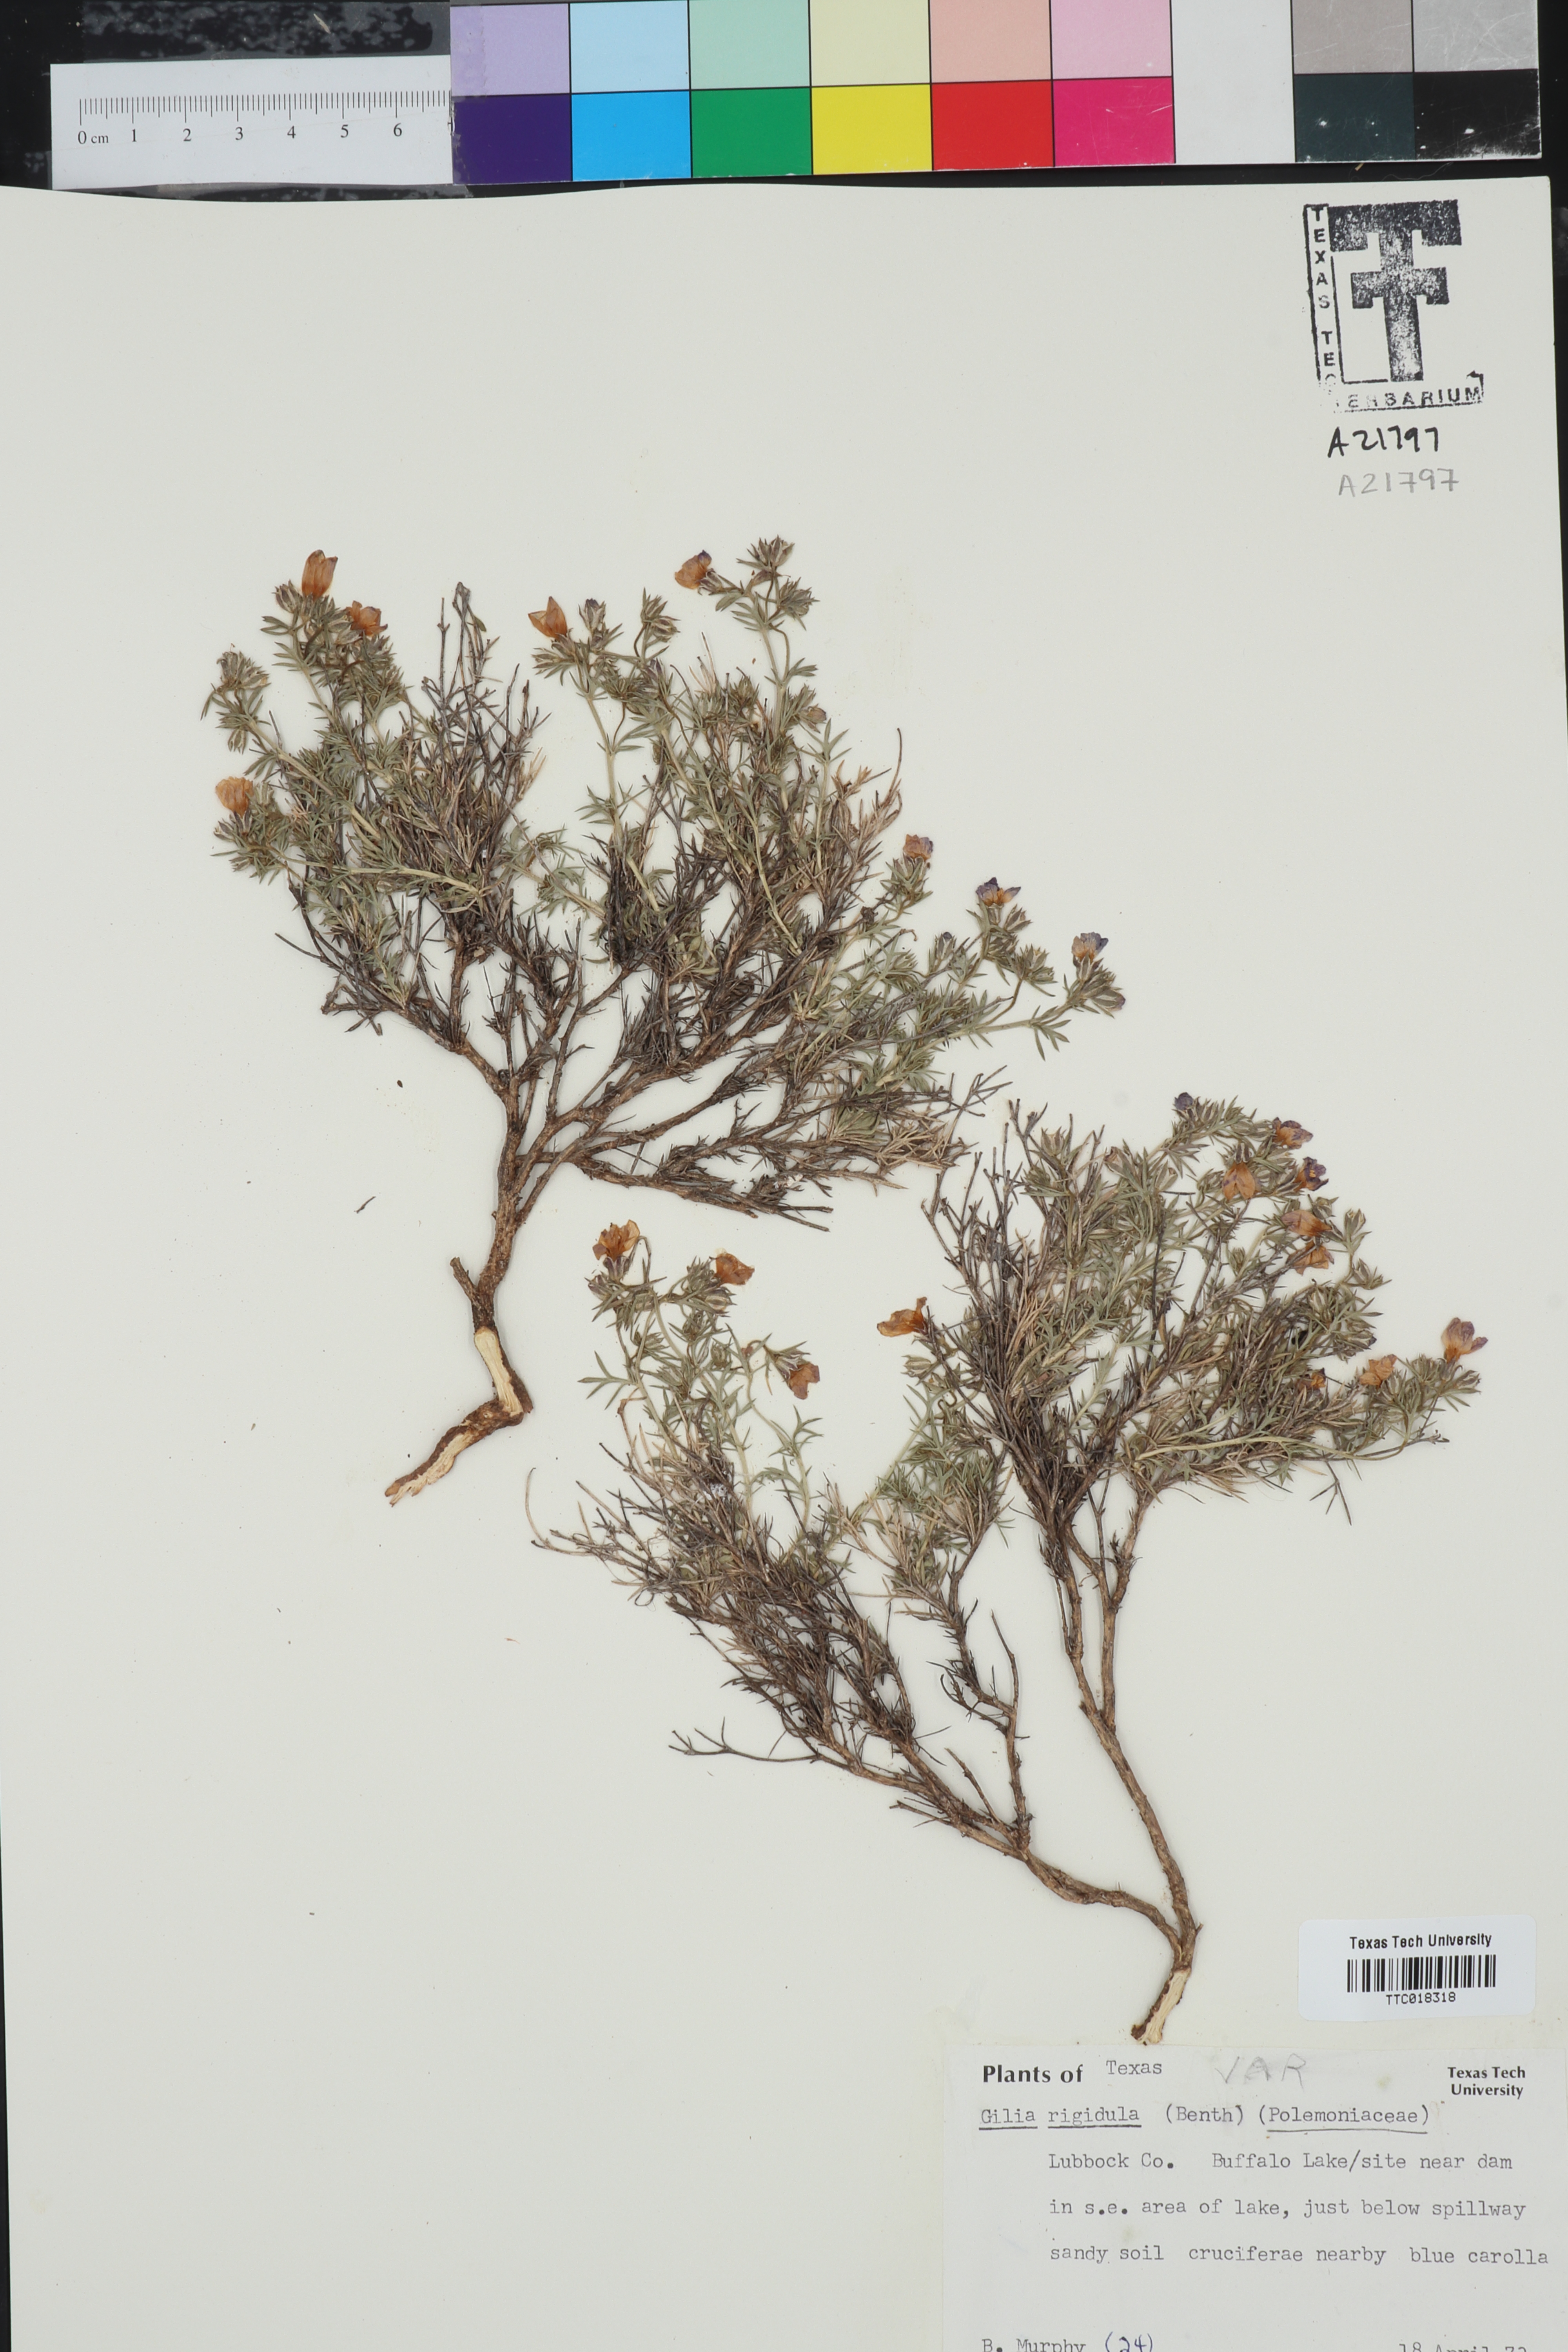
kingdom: Plantae
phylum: Tracheophyta
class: Magnoliopsida
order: Ericales
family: Polemoniaceae
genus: Giliastrum
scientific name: Giliastrum rigidulum
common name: Bluebowls
